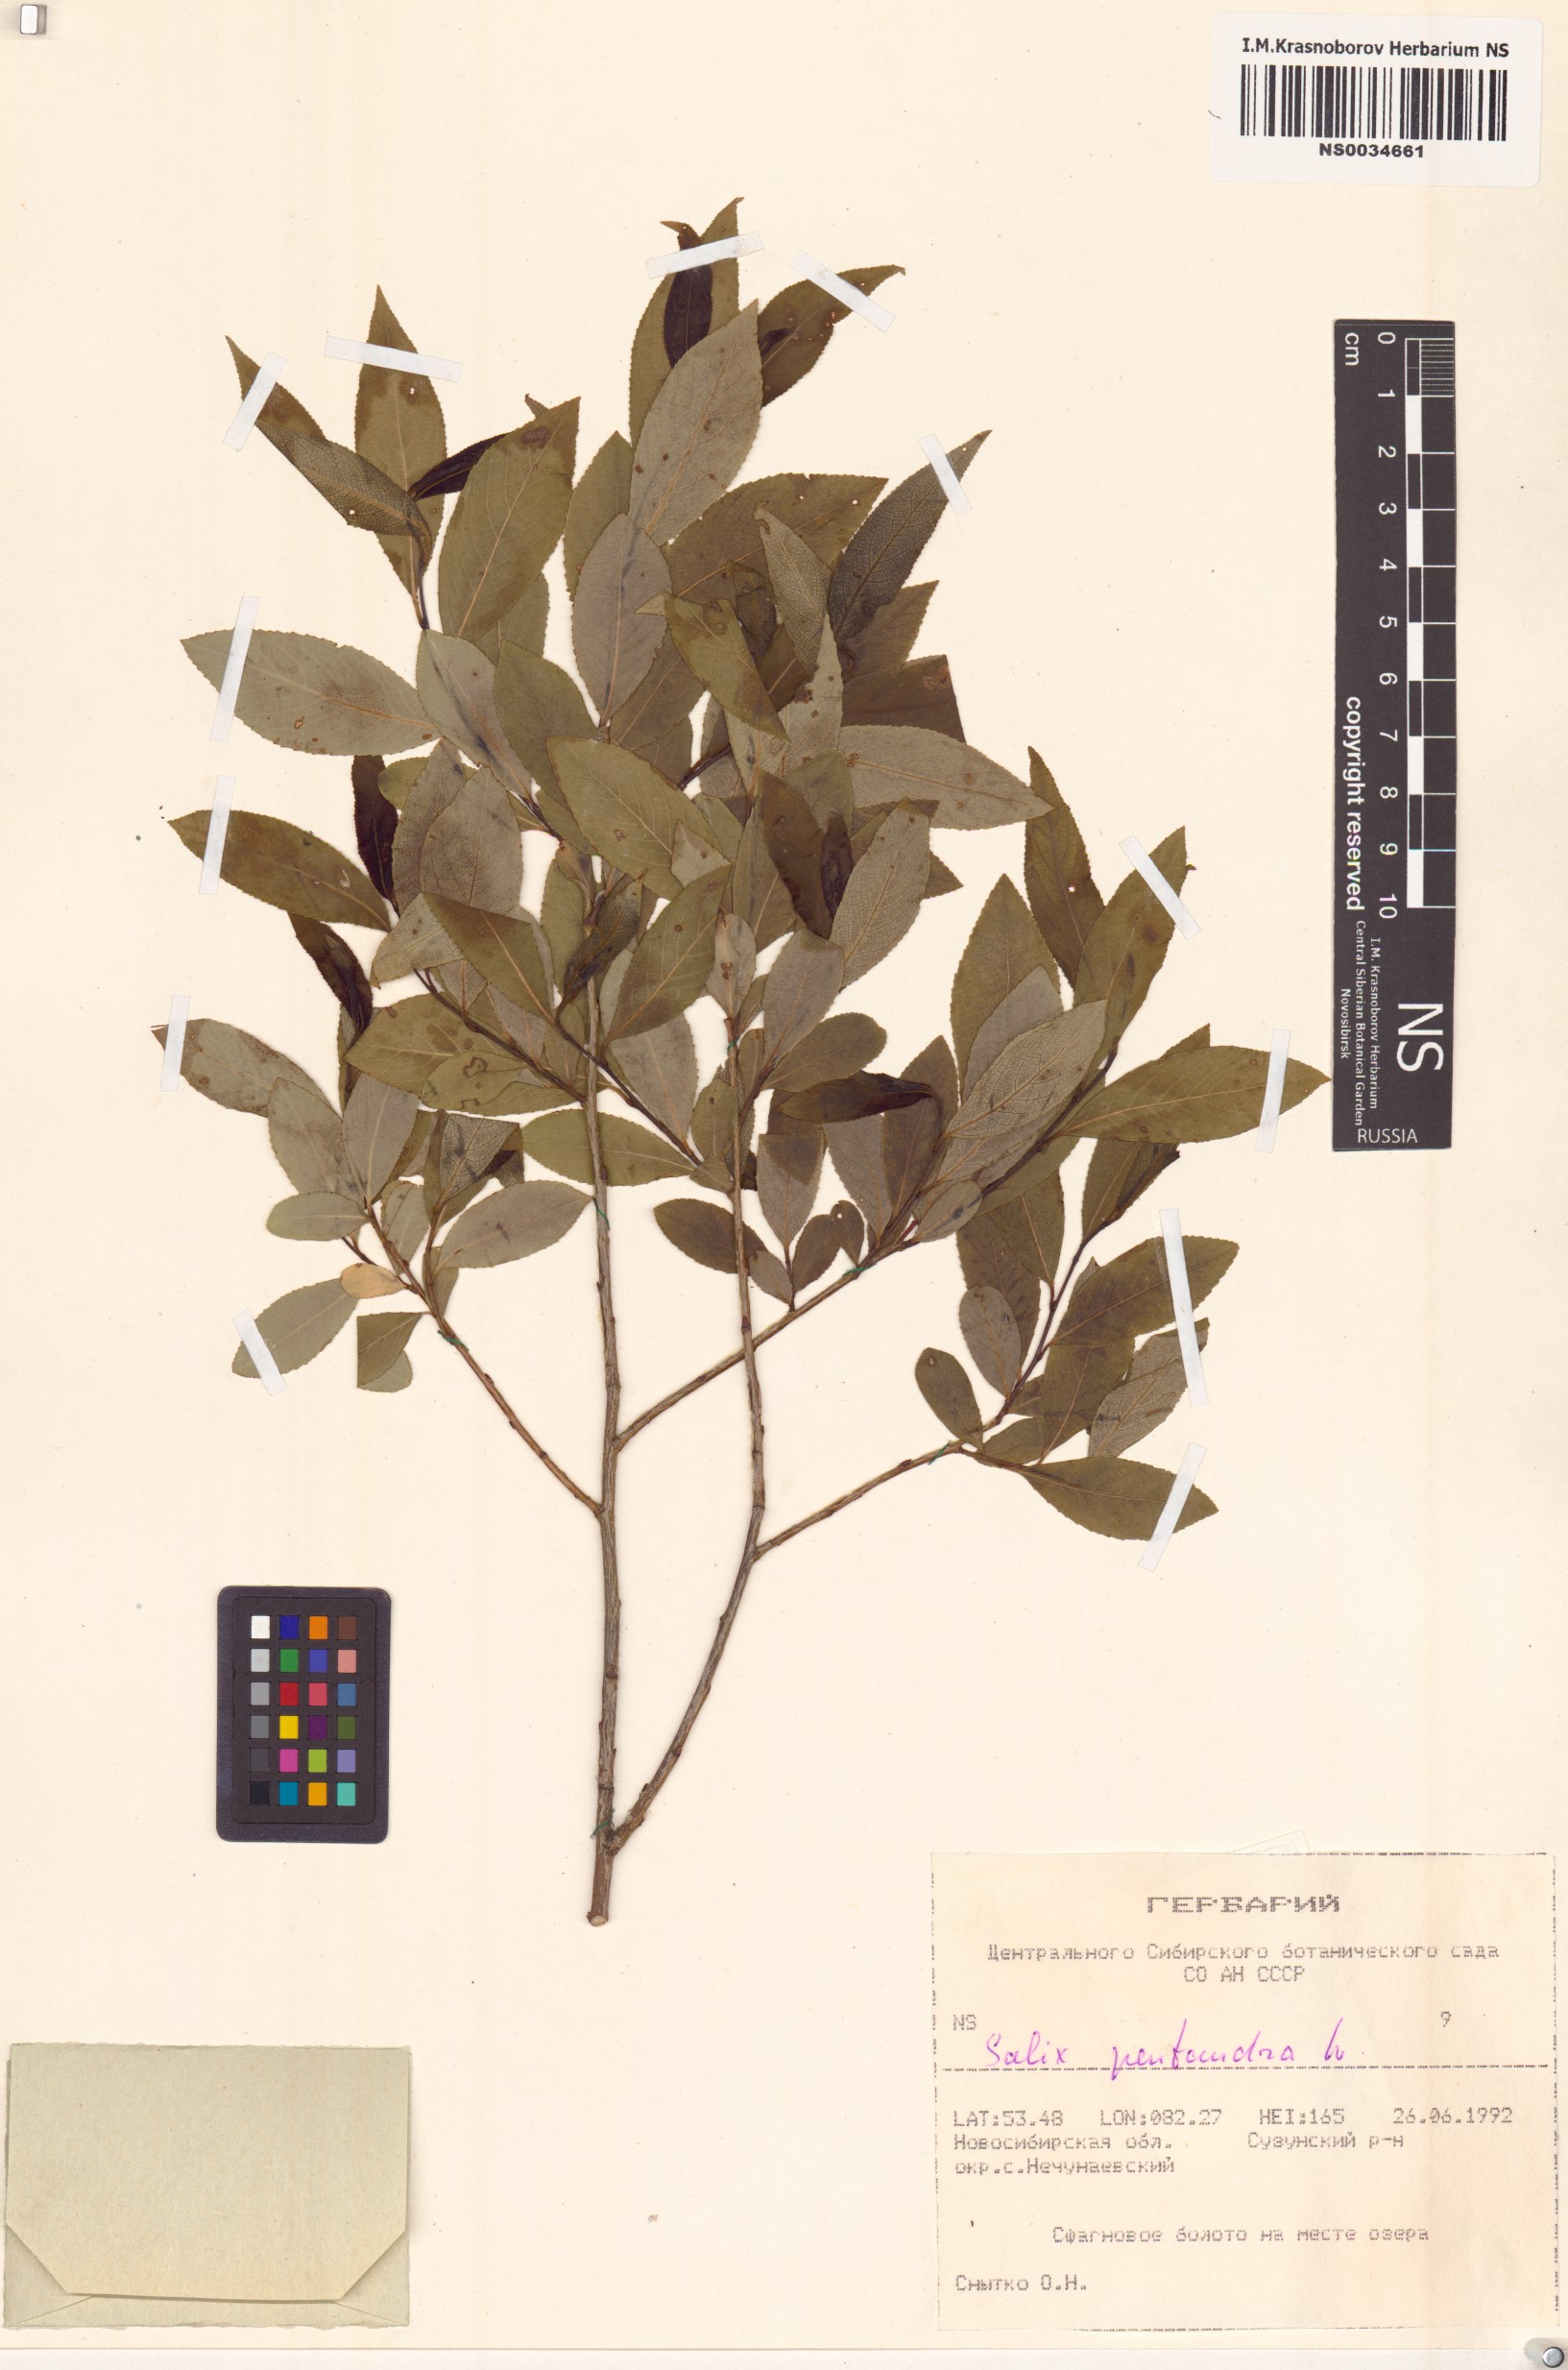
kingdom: Plantae
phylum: Tracheophyta
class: Magnoliopsida
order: Malpighiales
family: Salicaceae
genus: Salix
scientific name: Salix pentandra
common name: Bay willow
